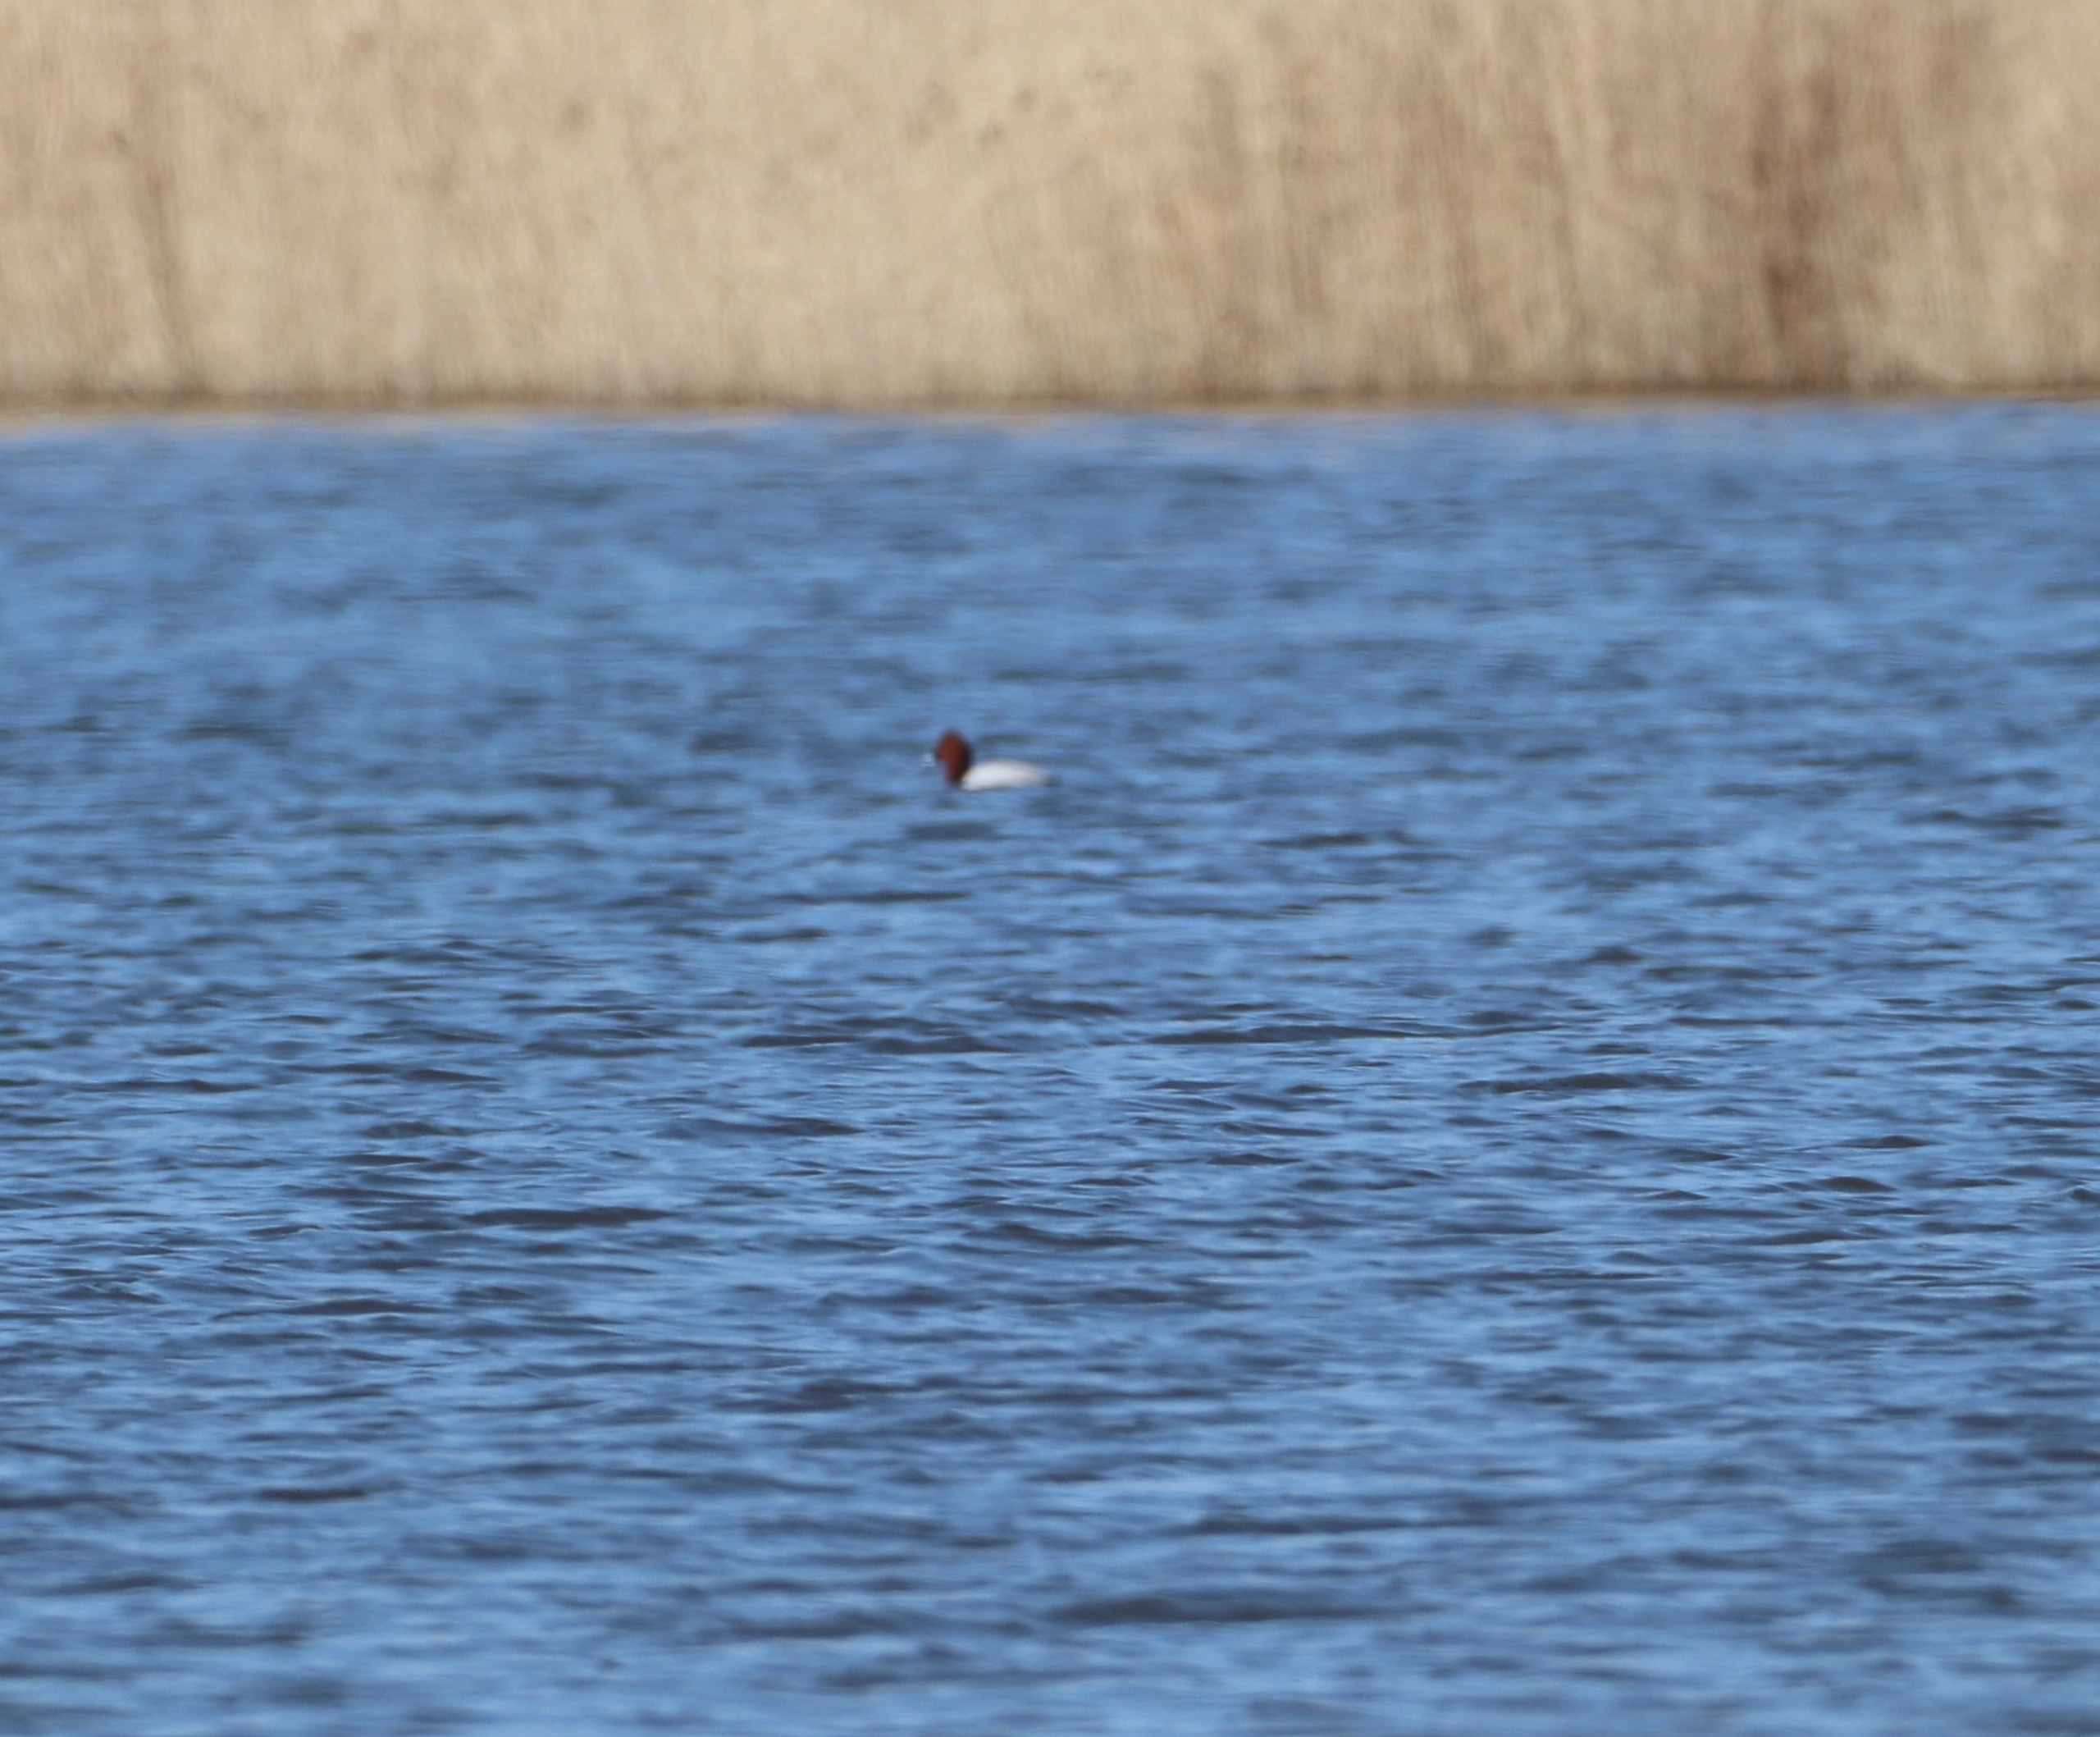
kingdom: Animalia
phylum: Chordata
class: Aves
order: Anseriformes
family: Anatidae
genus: Aythya
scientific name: Aythya ferina
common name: Taffeland
